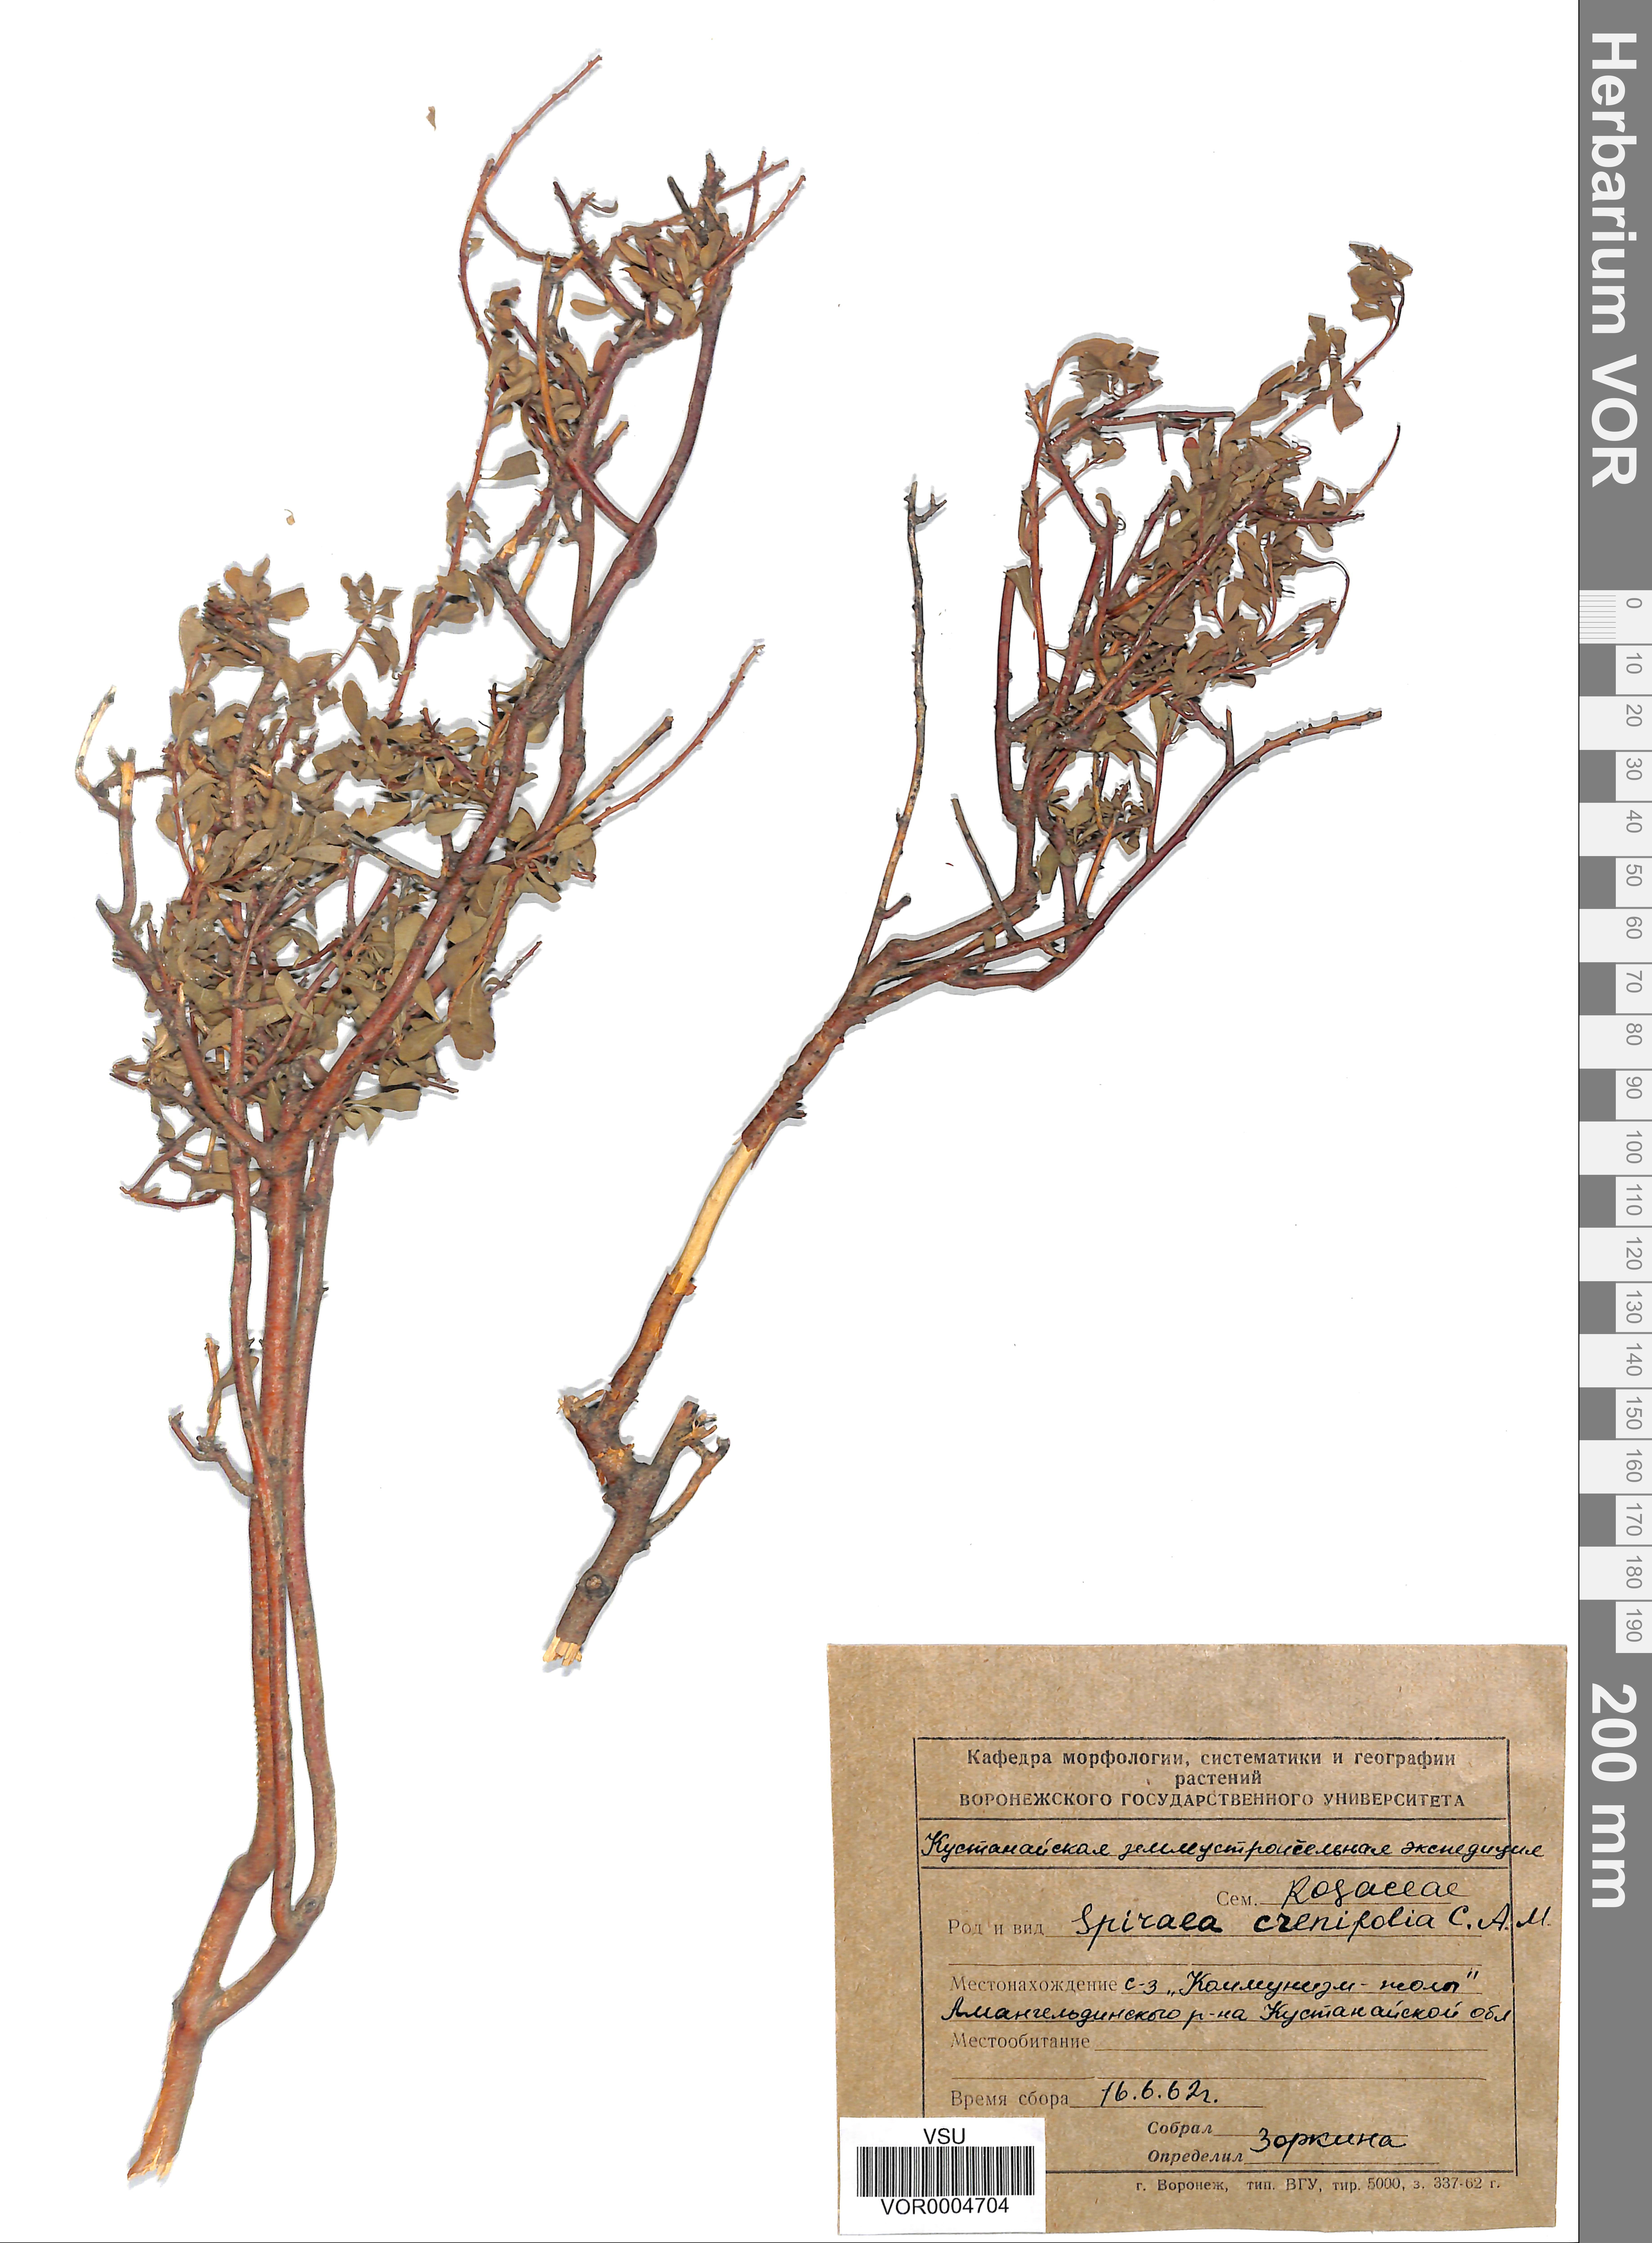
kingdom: Plantae
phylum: Tracheophyta
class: Magnoliopsida
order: Rosales
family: Rosaceae
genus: Spiraea
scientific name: Spiraea crenata
